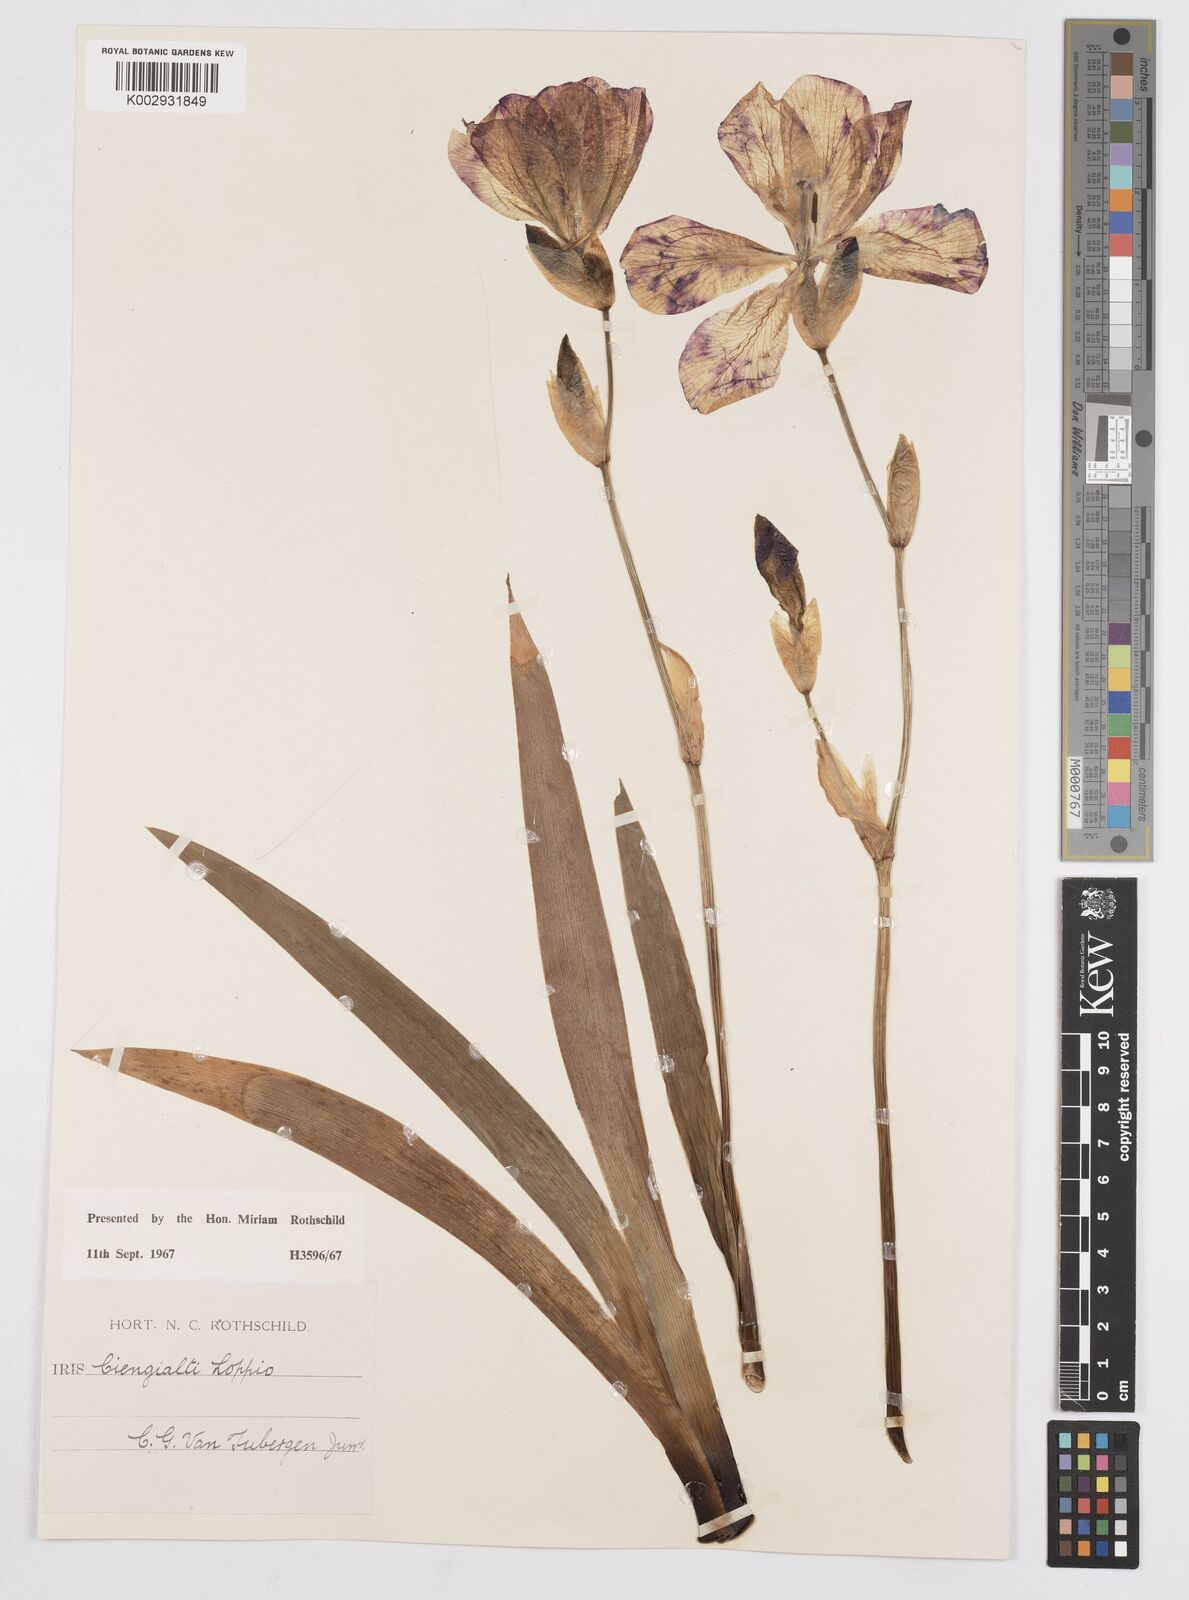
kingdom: Plantae
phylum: Tracheophyta
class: Liliopsida
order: Asparagales
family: Iridaceae
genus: Iris
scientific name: Iris pallida
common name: Sweet iris
